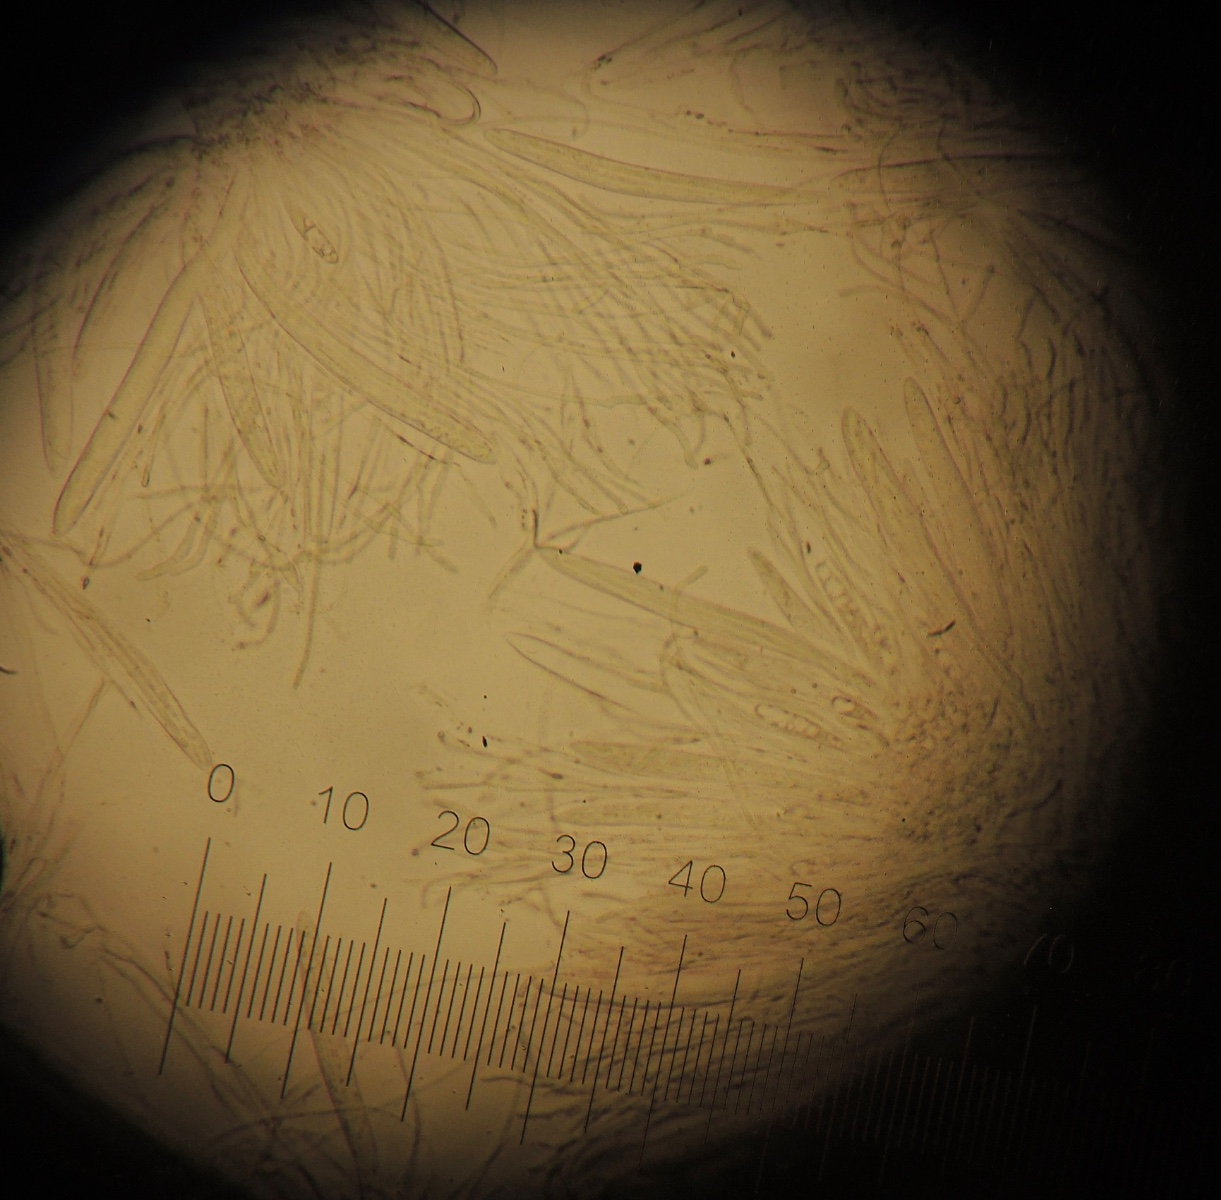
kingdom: Fungi
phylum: Ascomycota
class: Leotiomycetes
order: Rhytismatales
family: Rhytismataceae
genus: Lophodermium
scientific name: Lophodermium pinastri
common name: fyrre-fureplet
